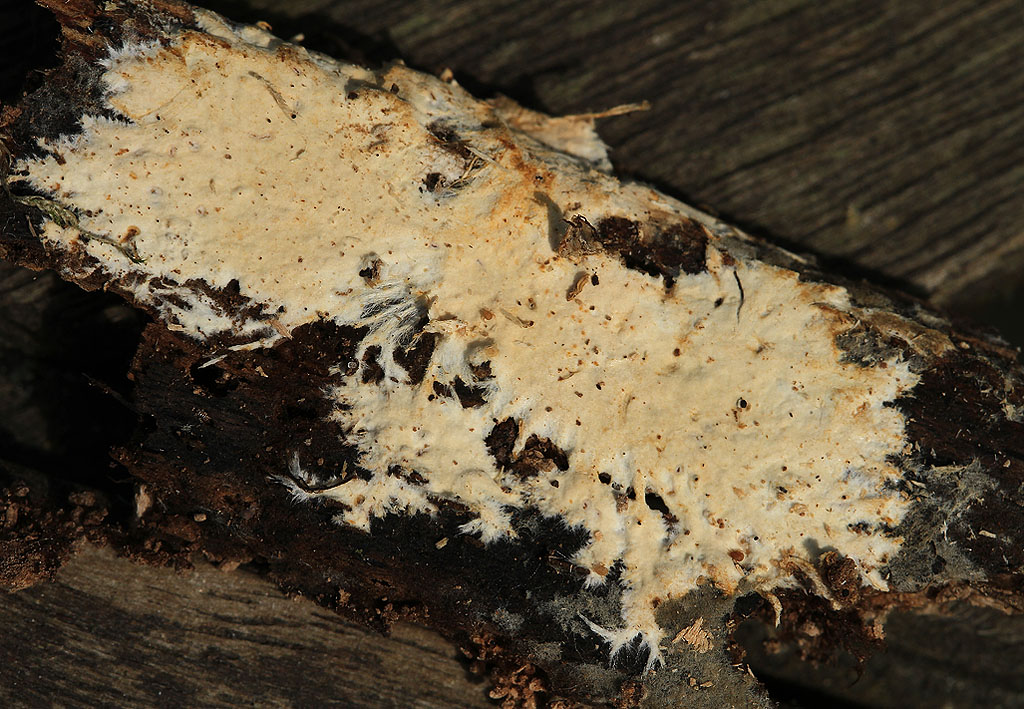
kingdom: Fungi
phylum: Basidiomycota
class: Agaricomycetes
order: Polyporales
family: Phanerochaetaceae
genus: Phanerochaete
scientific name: Phanerochaete velutina
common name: dunet randtråd
